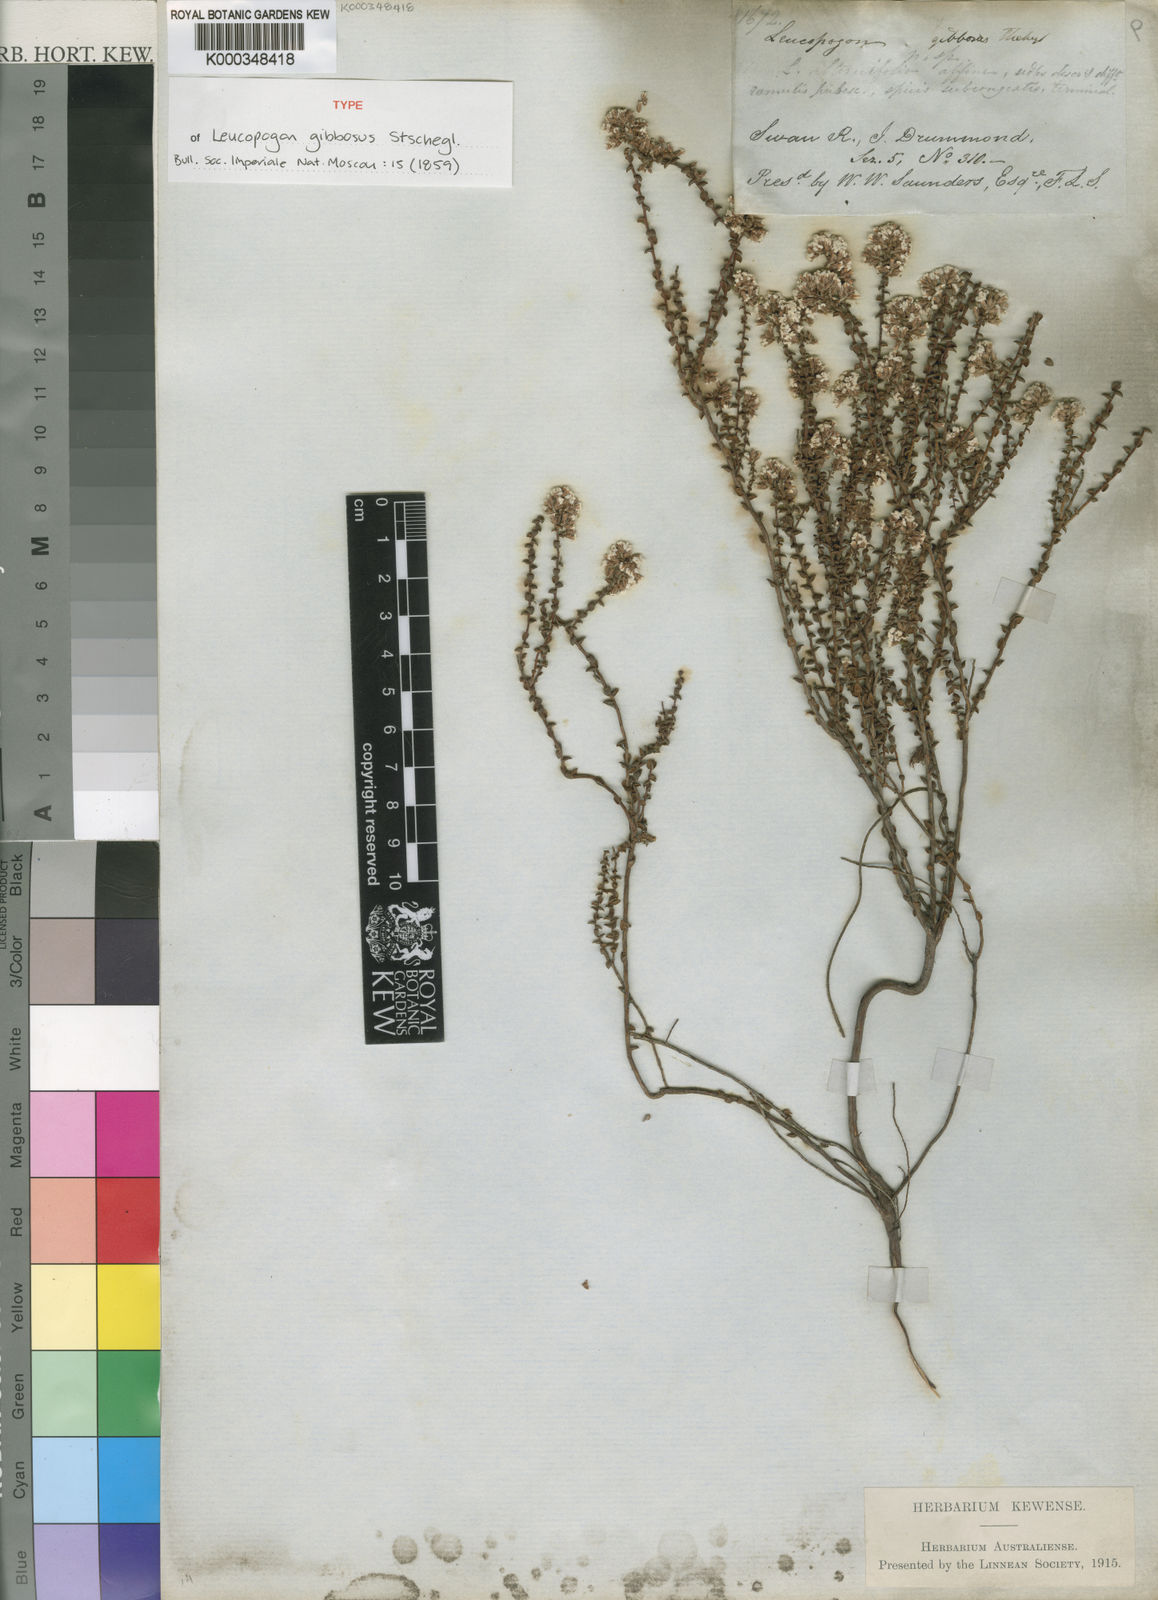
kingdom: Plantae
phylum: Tracheophyta
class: Magnoliopsida
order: Ericales
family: Ericaceae
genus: Leucopogon
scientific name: Leucopogon gibbosus
